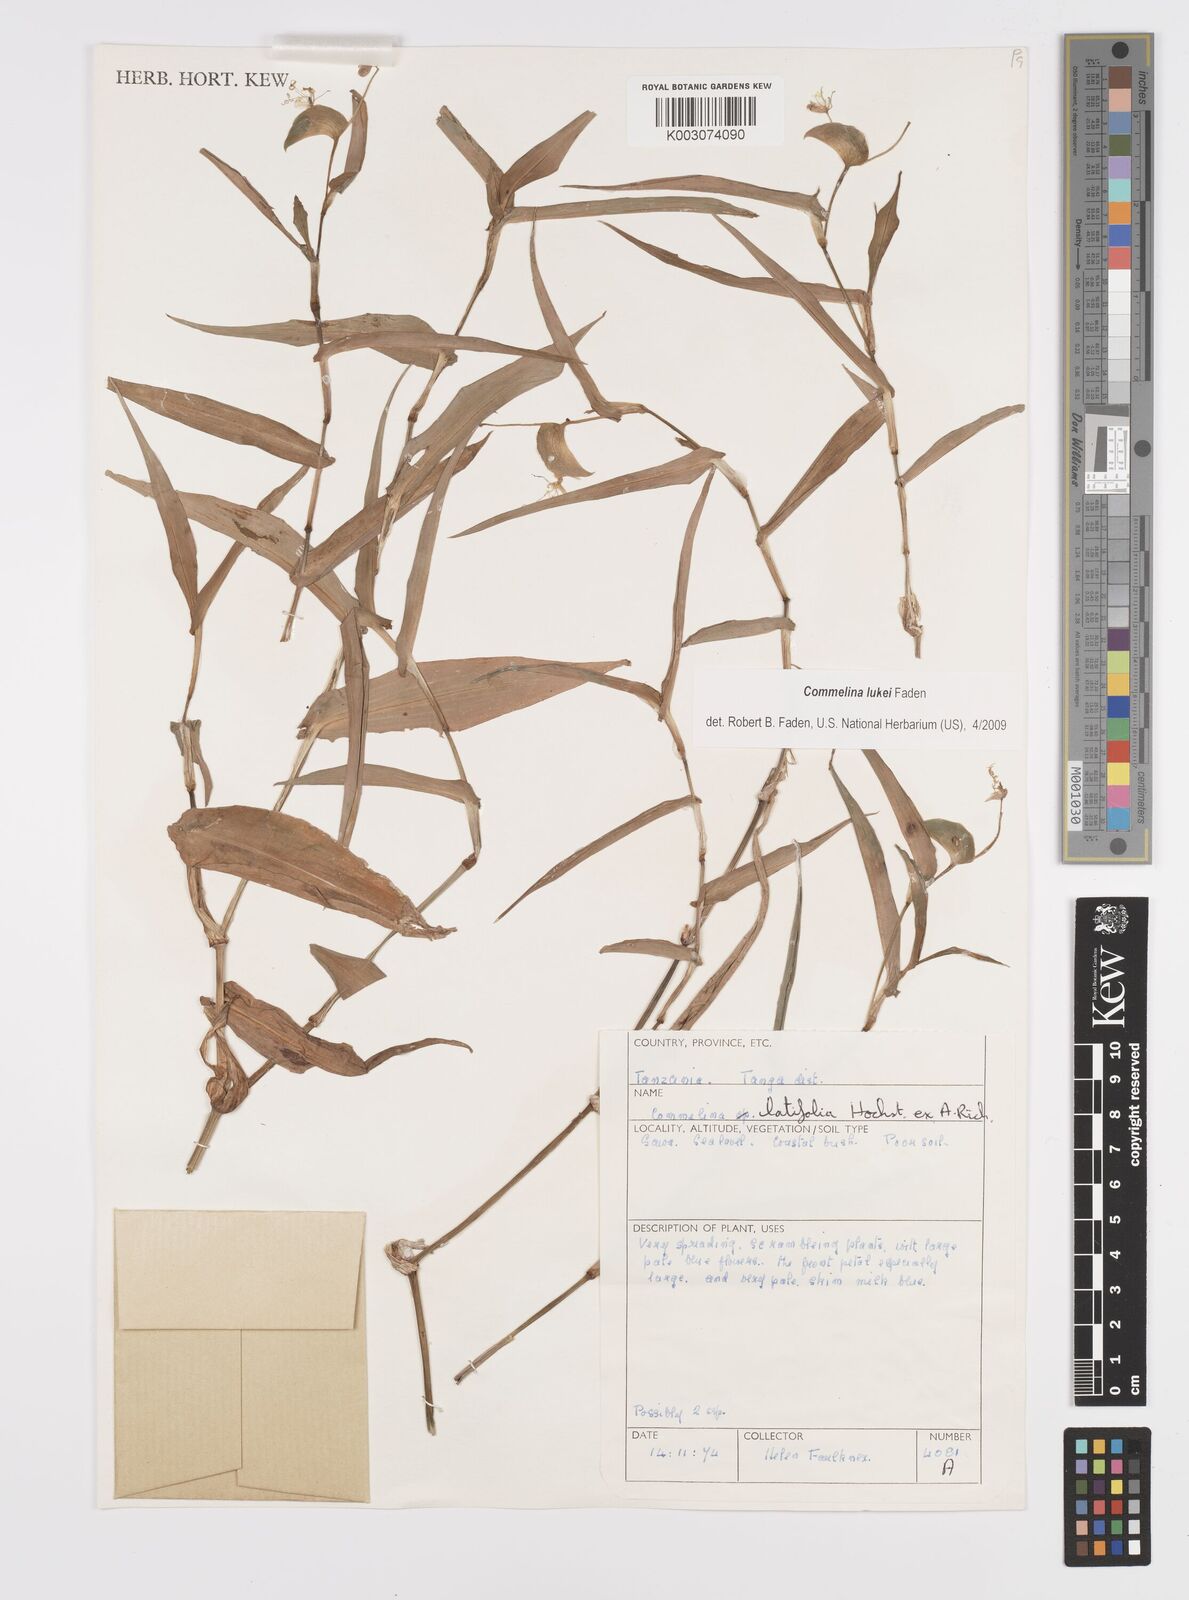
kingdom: Plantae
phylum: Tracheophyta
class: Liliopsida
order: Commelinales
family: Commelinaceae
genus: Commelina
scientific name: Commelina lukei
